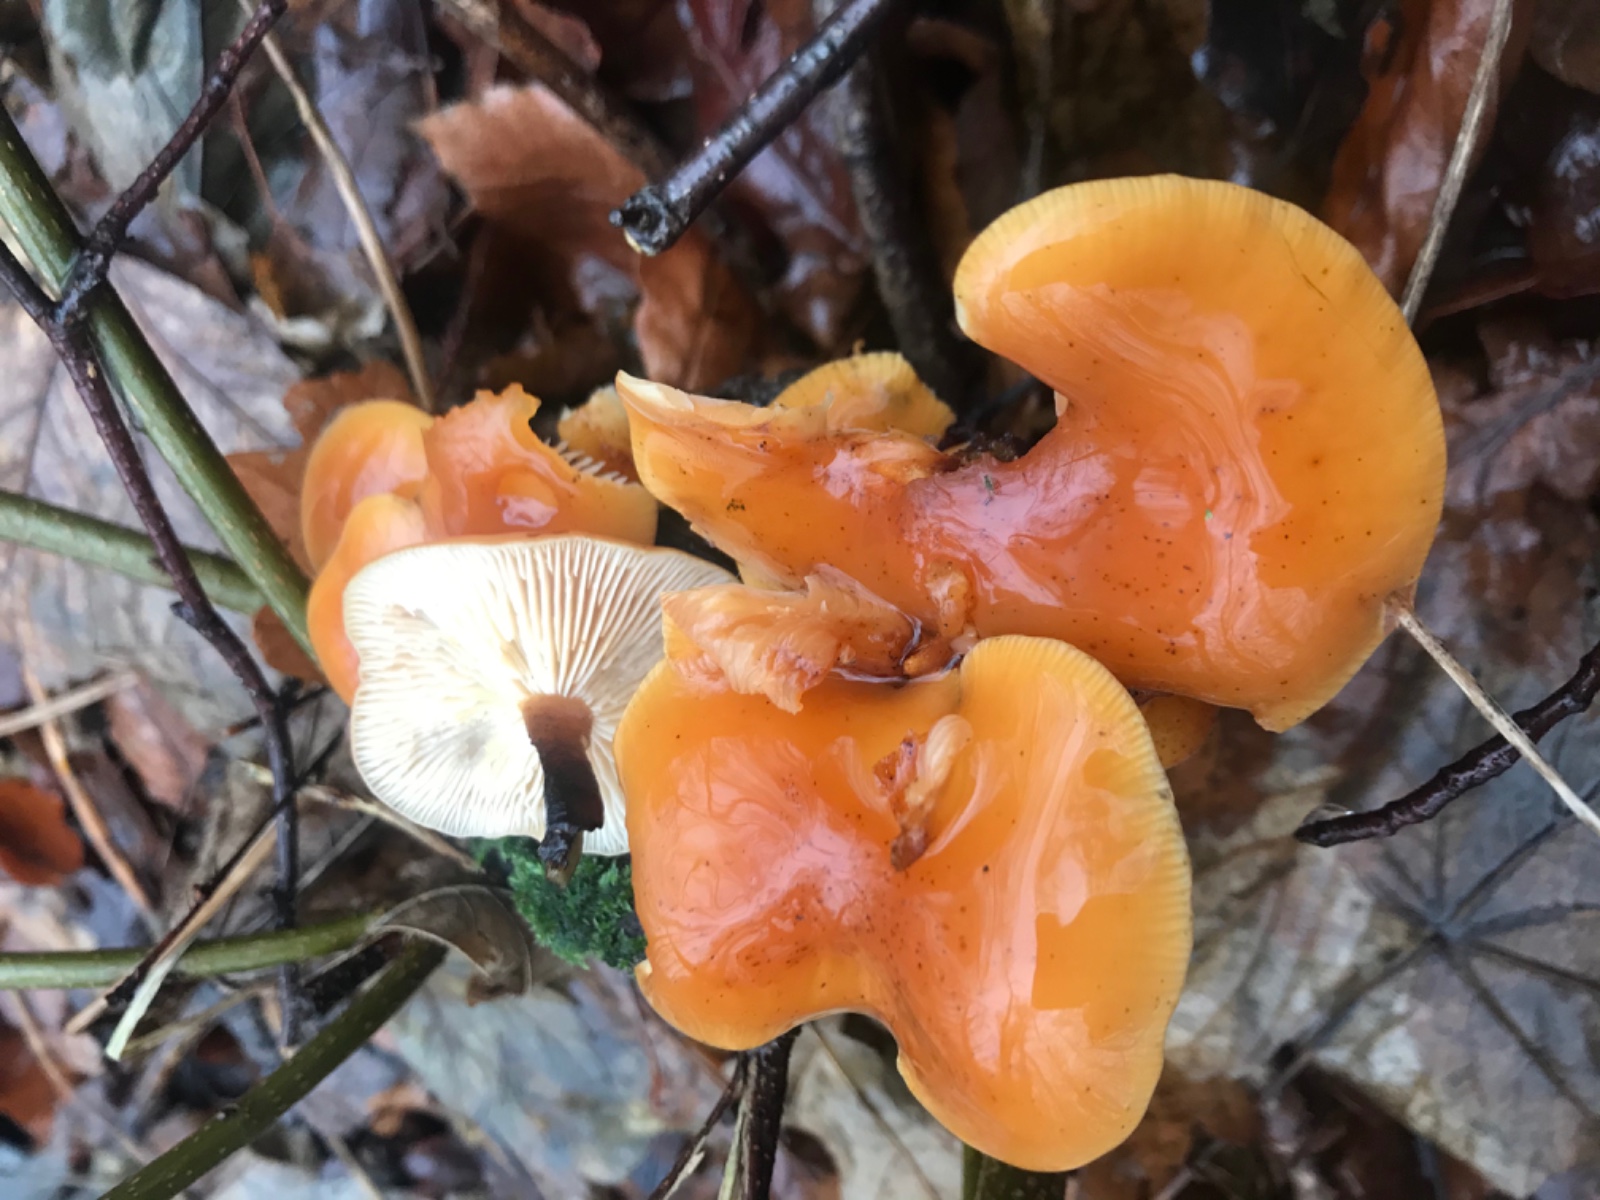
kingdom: Fungi
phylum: Basidiomycota
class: Agaricomycetes
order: Agaricales
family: Physalacriaceae
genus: Flammulina
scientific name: Flammulina velutipes
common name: gul fløjlsfod
